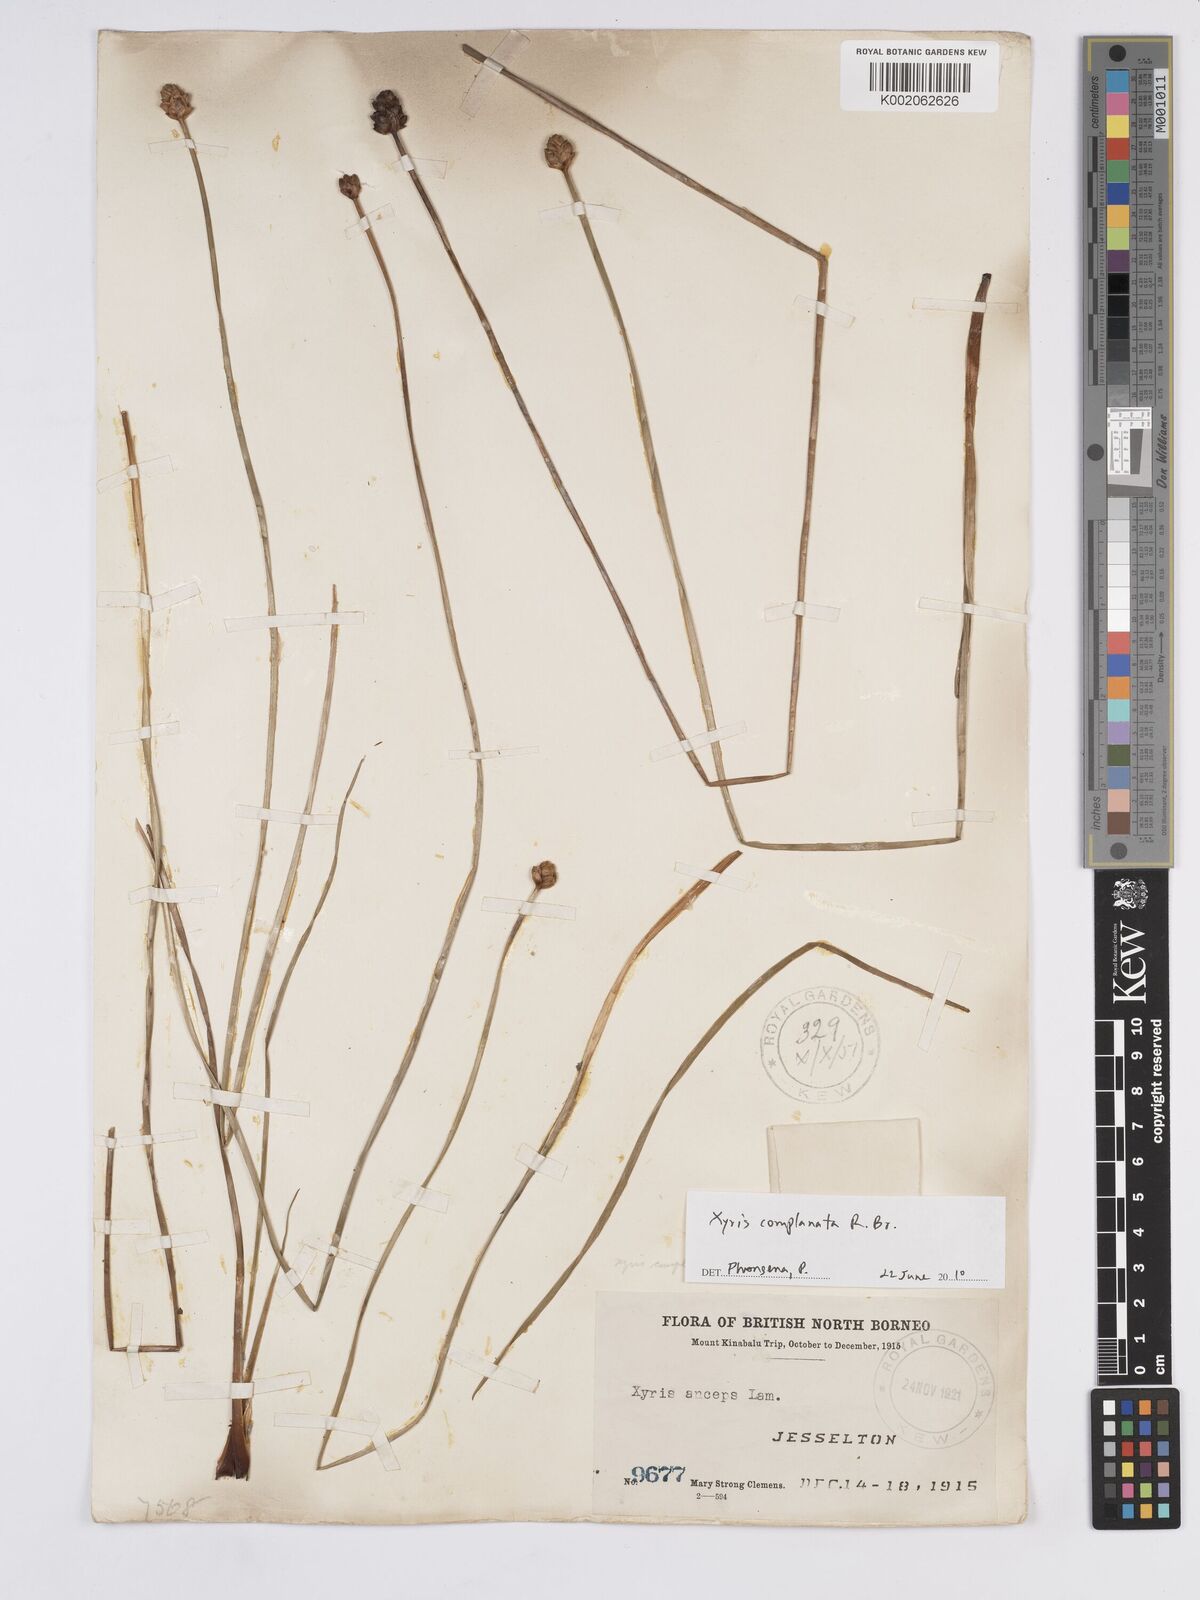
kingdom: Plantae
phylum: Tracheophyta
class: Liliopsida
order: Poales
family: Xyridaceae
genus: Xyris
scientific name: Xyris complanata
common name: Hawai'i yelloweyed grass
